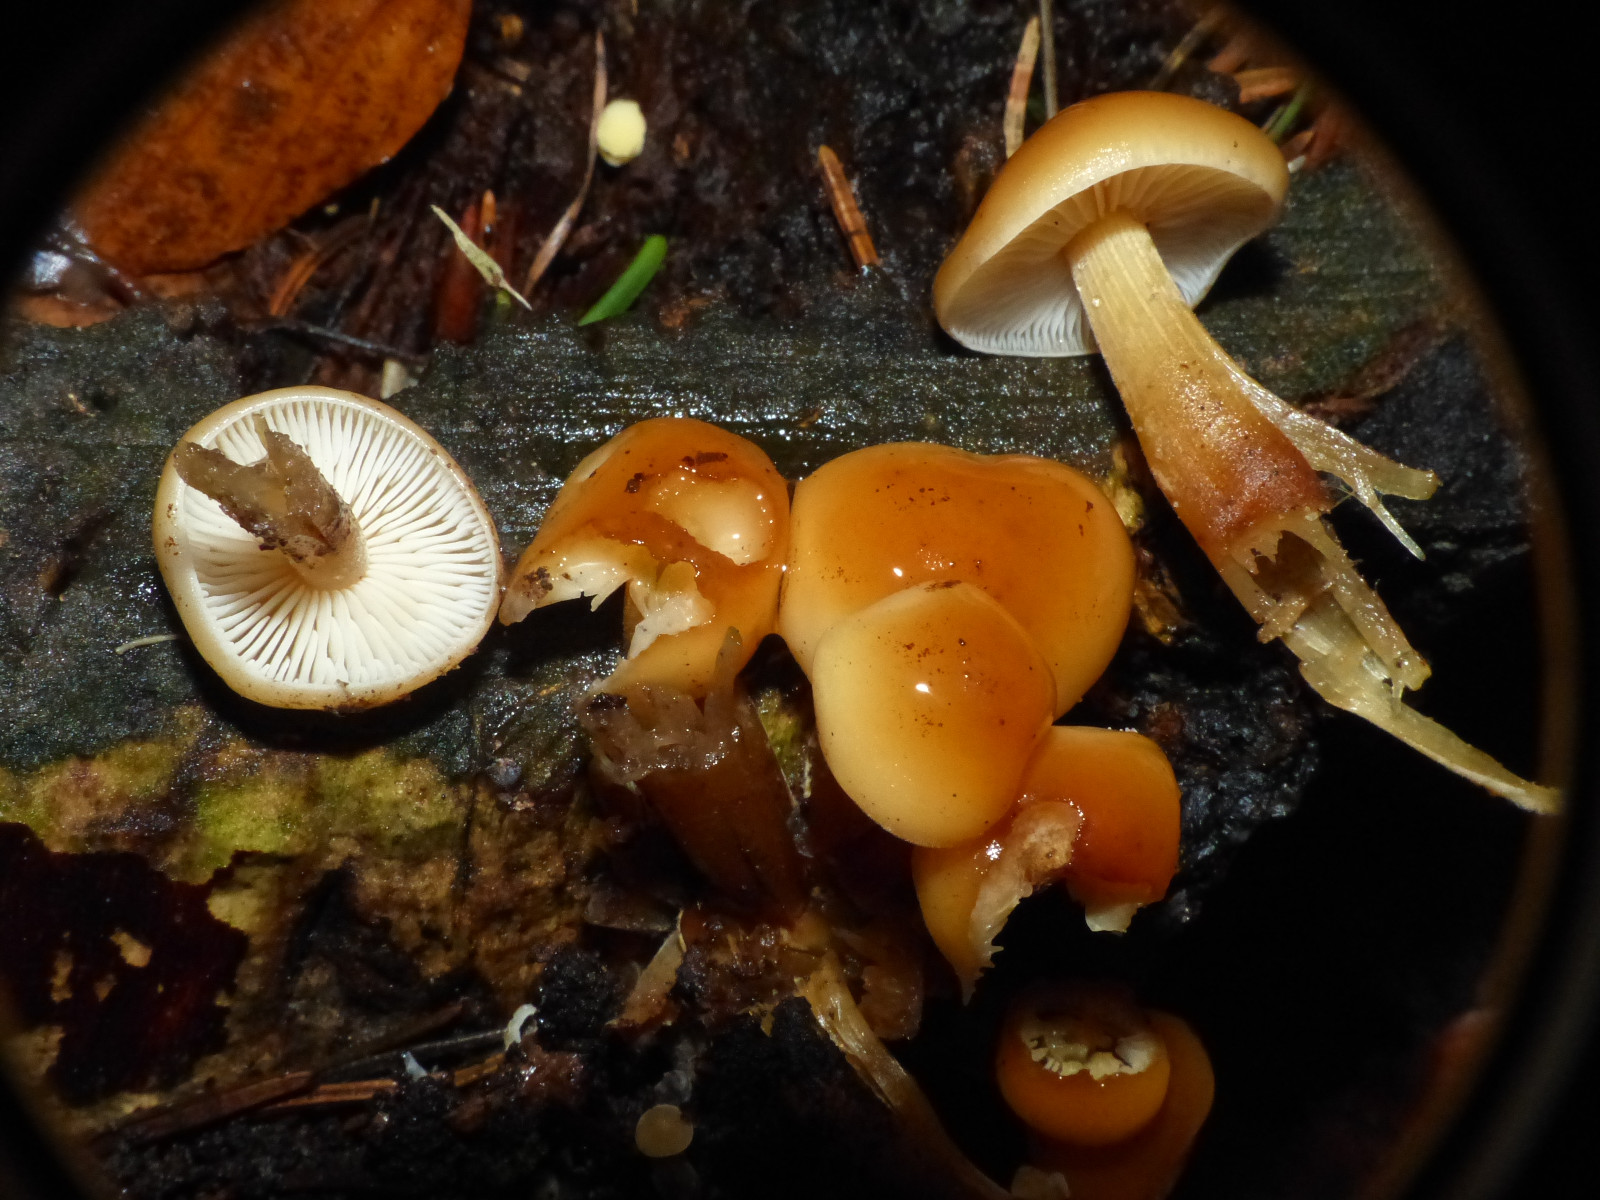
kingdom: Fungi
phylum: Basidiomycota
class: Agaricomycetes
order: Agaricales
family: Physalacriaceae
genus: Flammulina
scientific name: Flammulina
